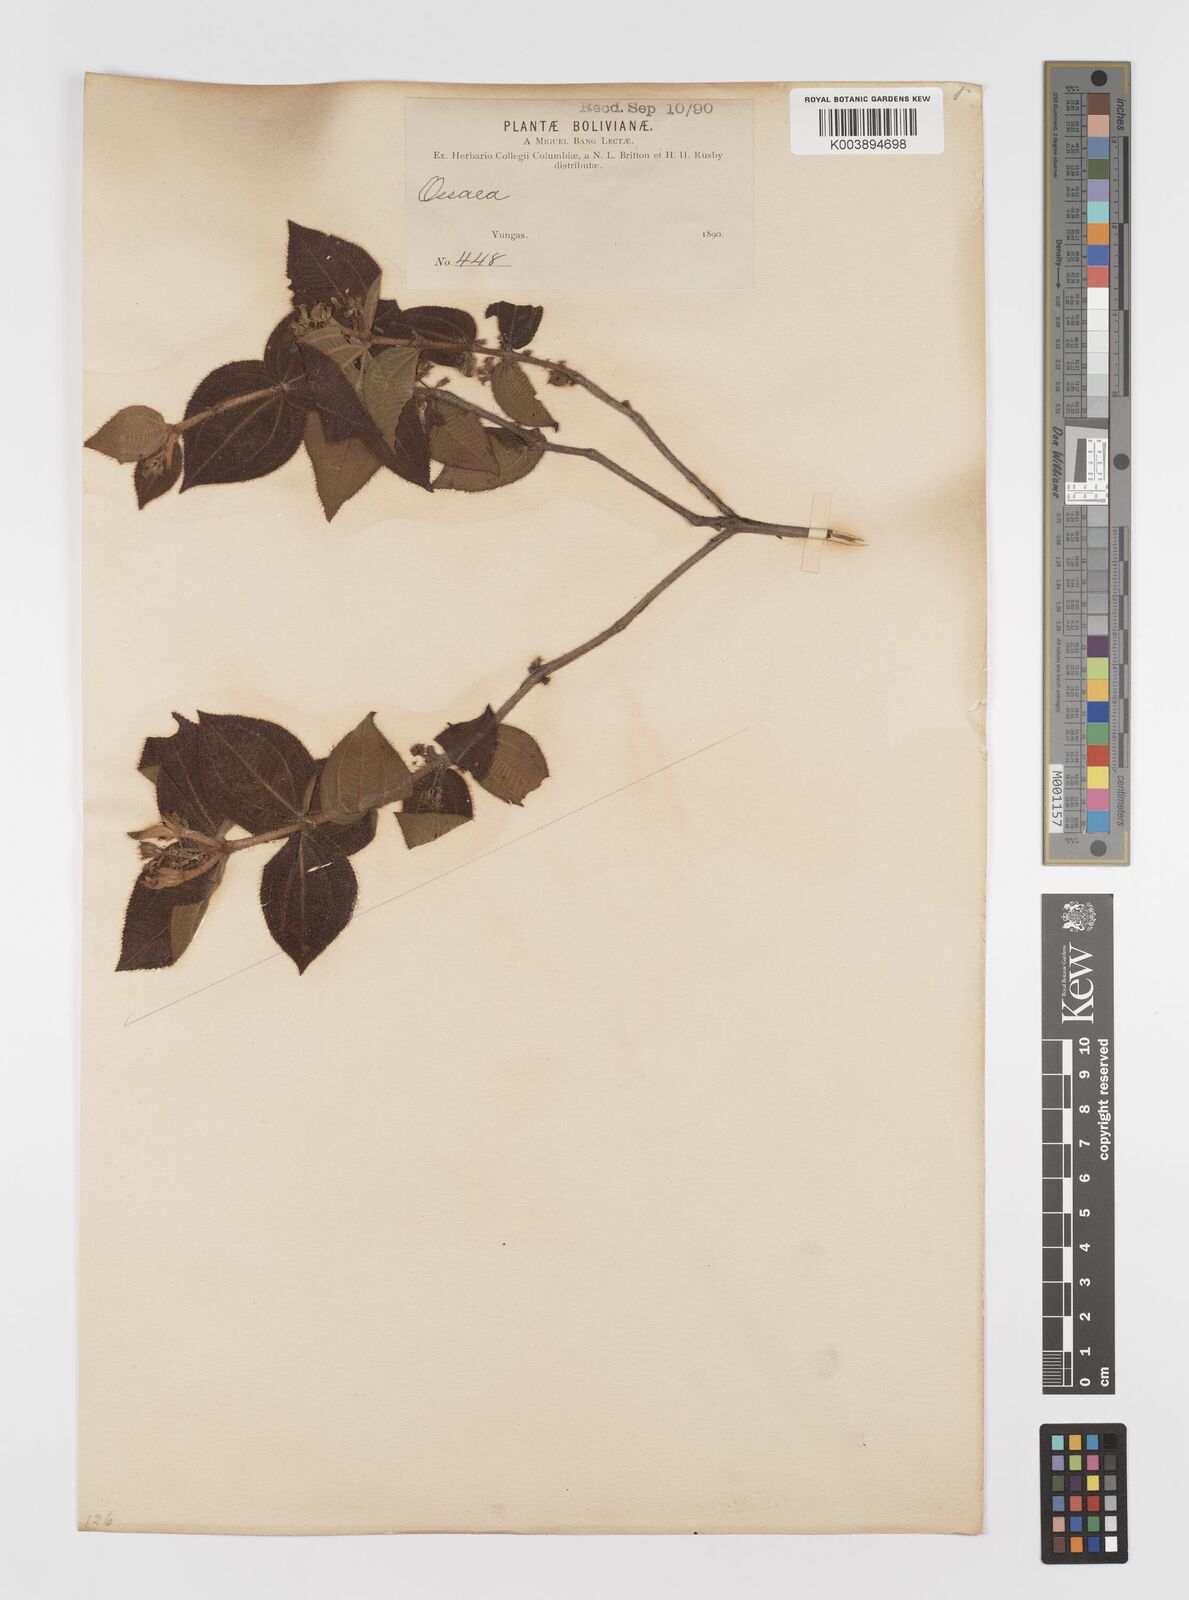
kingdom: Plantae
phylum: Tracheophyta
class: Magnoliopsida
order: Myrtales
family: Melastomataceae
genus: Ossaea
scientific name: Ossaea
